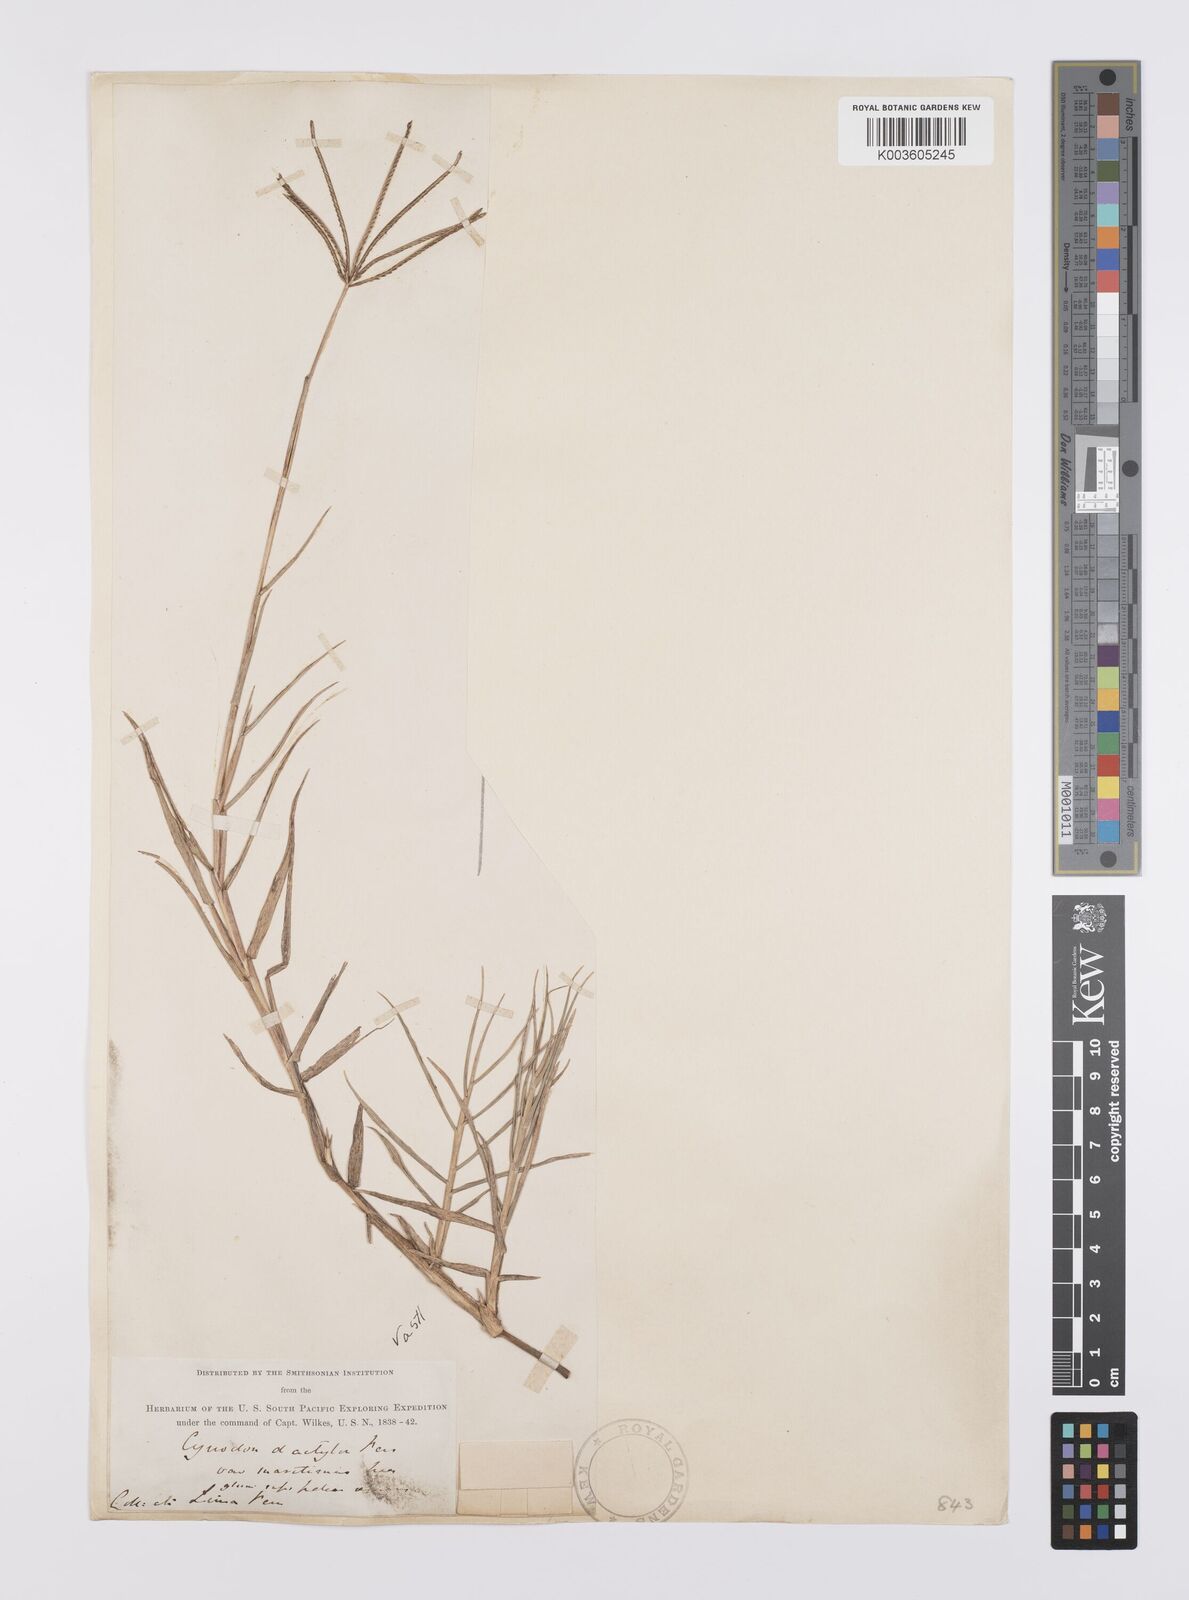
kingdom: Plantae
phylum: Tracheophyta
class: Liliopsida
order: Poales
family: Poaceae
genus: Cynodon
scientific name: Cynodon dactylon
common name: Bermuda grass
